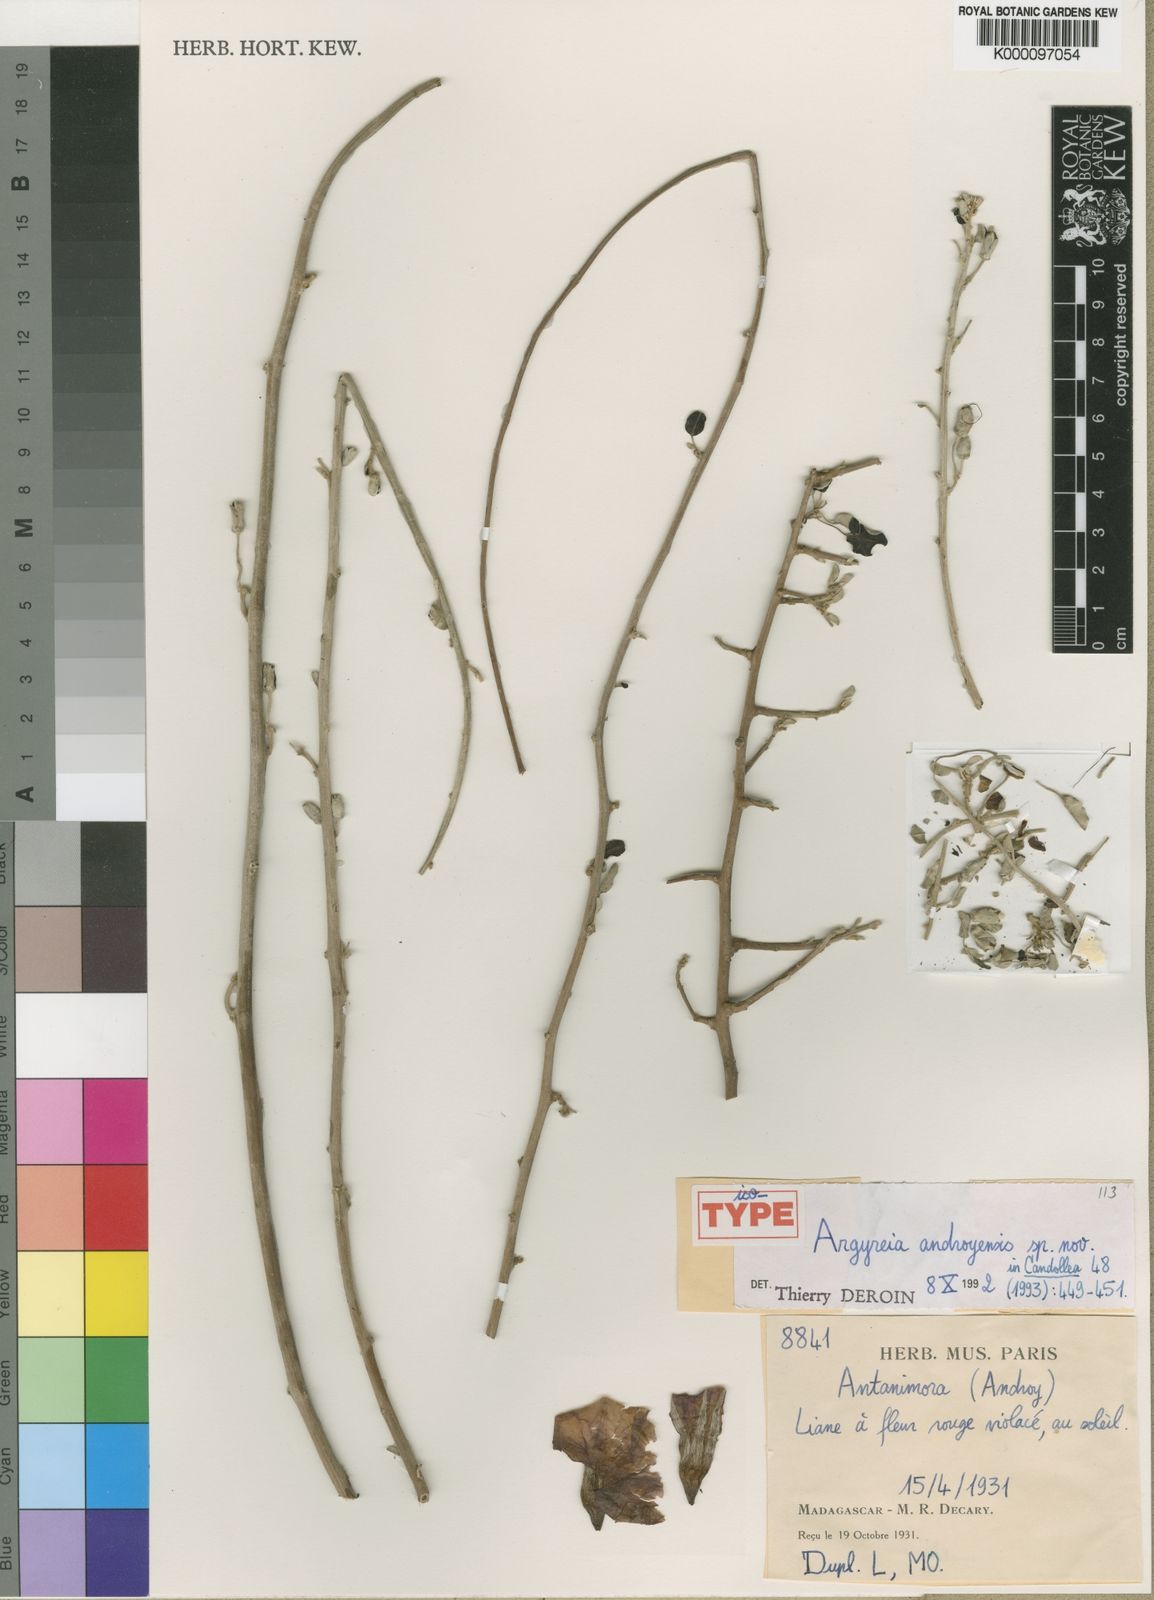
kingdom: Plantae
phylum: Tracheophyta
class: Magnoliopsida
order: Solanales
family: Convolvulaceae
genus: Argyreia
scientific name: Argyreia androyensis
